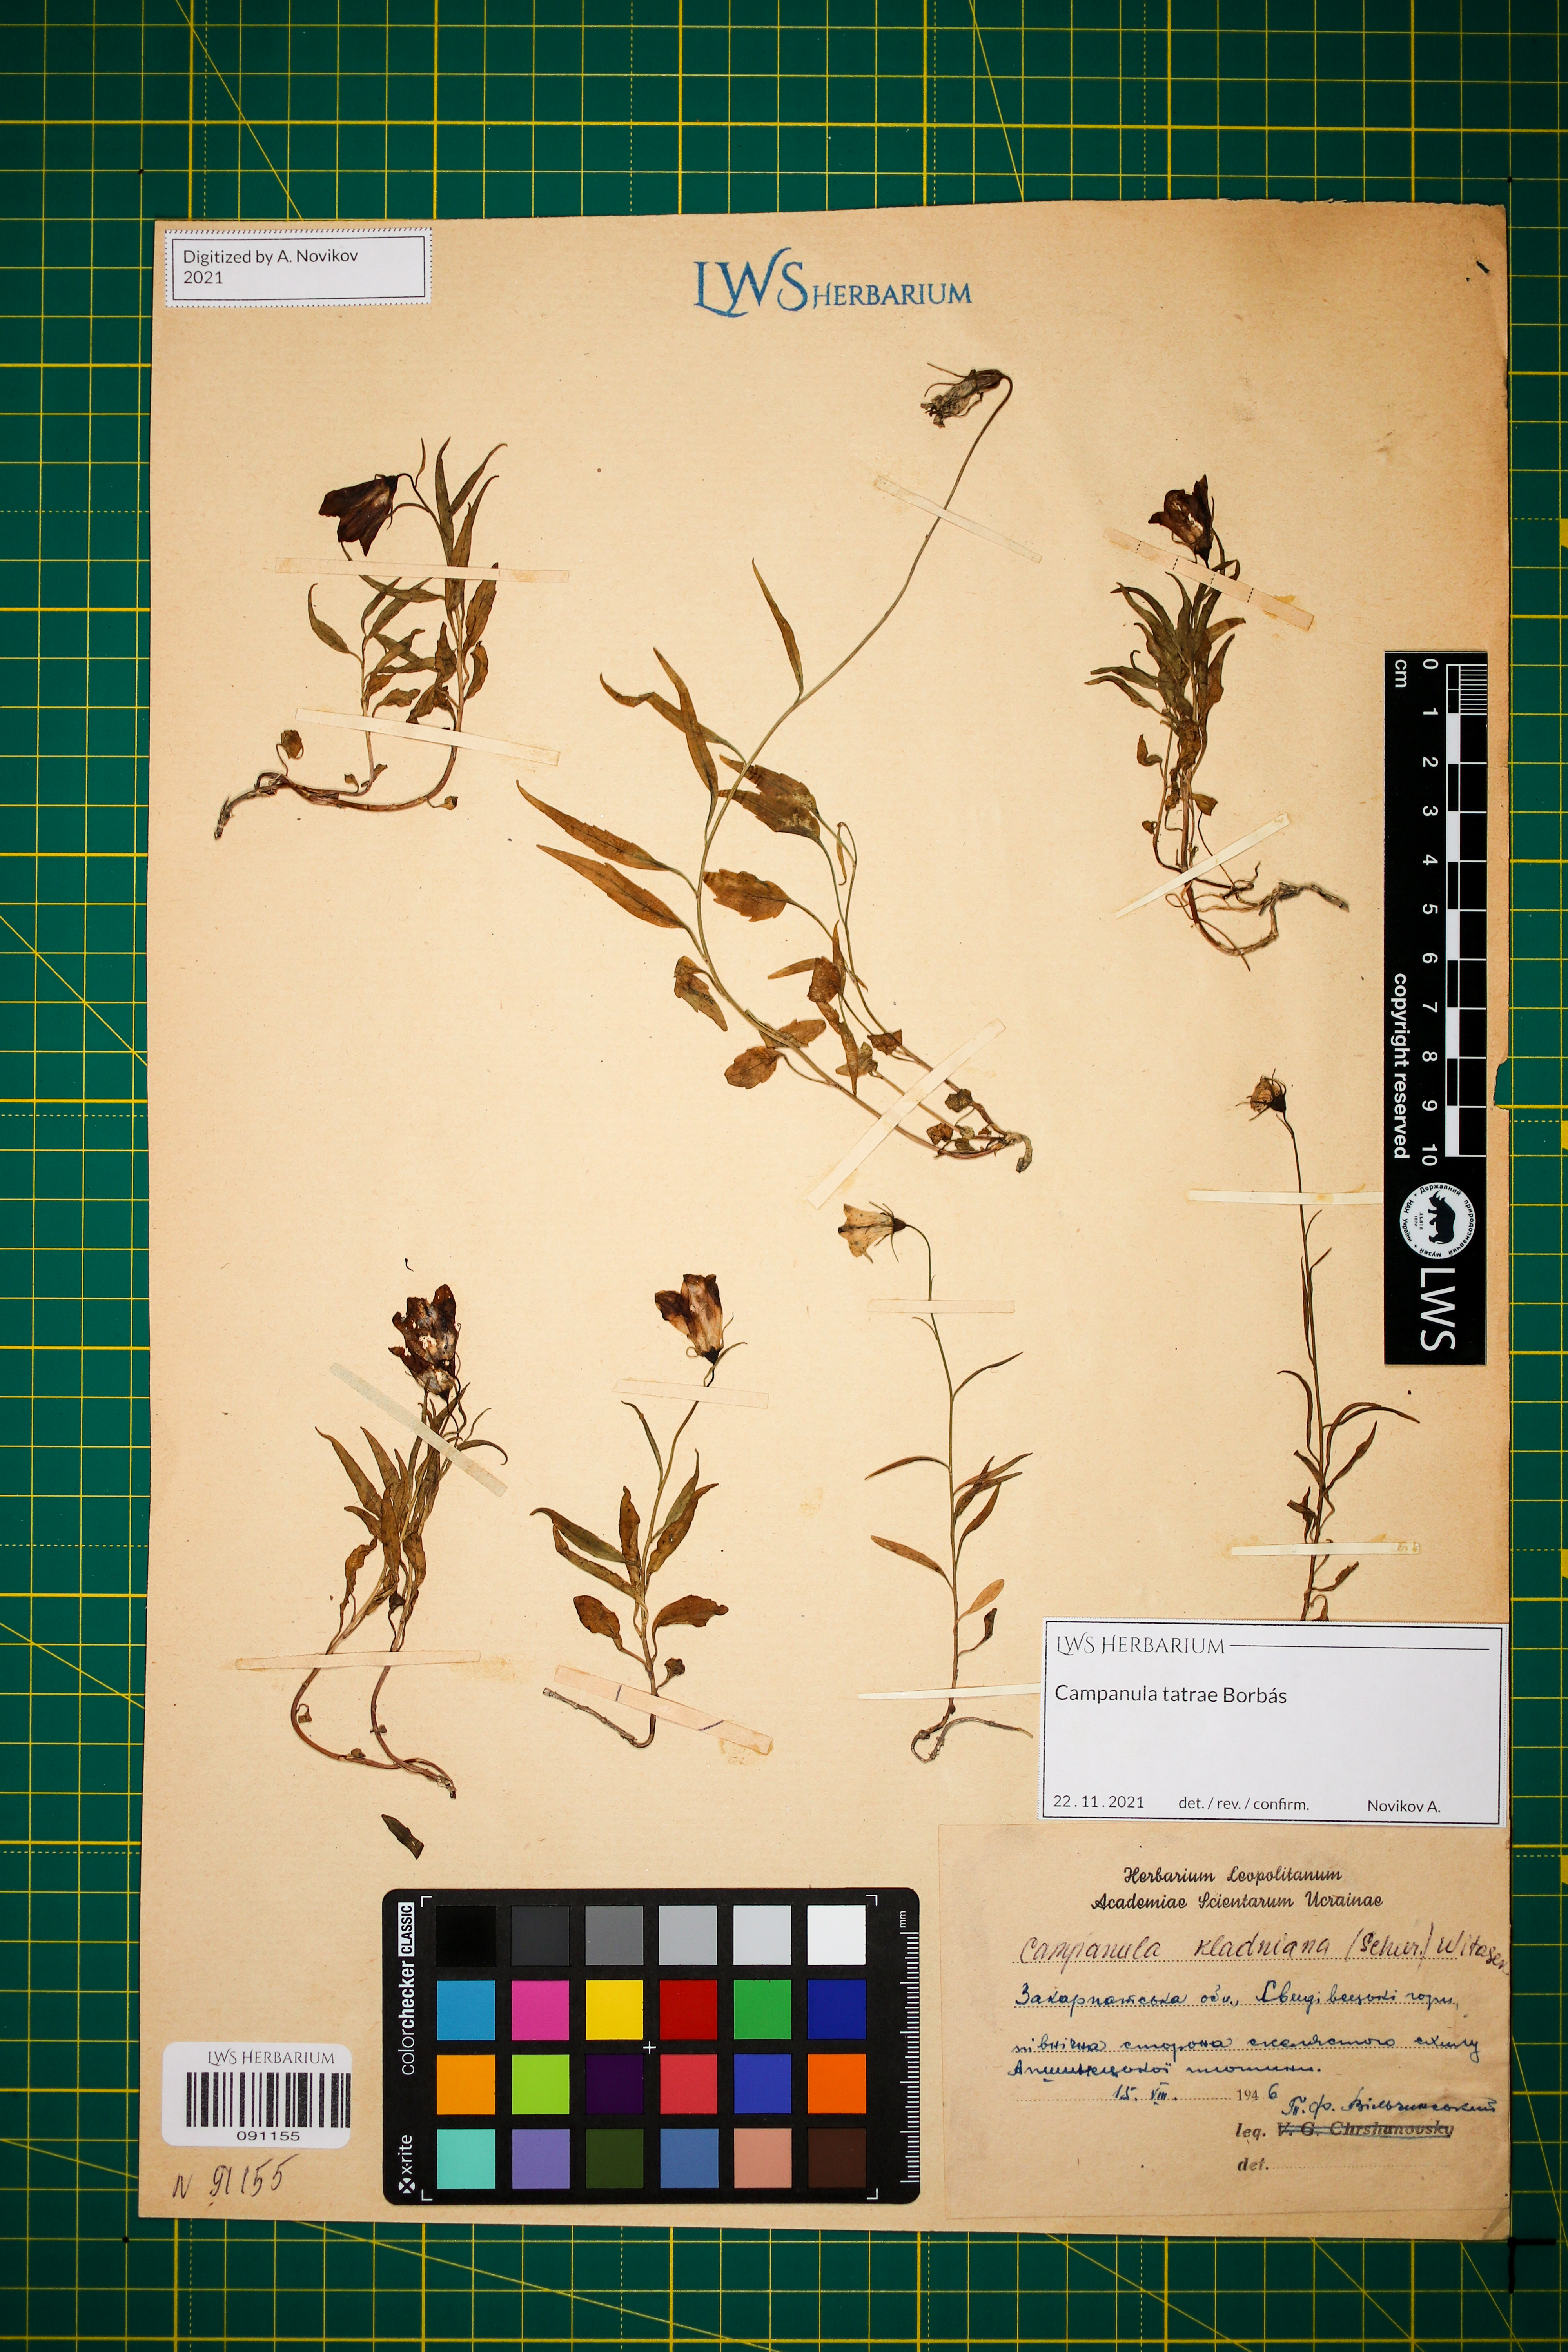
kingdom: Plantae
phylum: Tracheophyta
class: Magnoliopsida
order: Asterales
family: Campanulaceae
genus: Campanula
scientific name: Campanula kladniana
